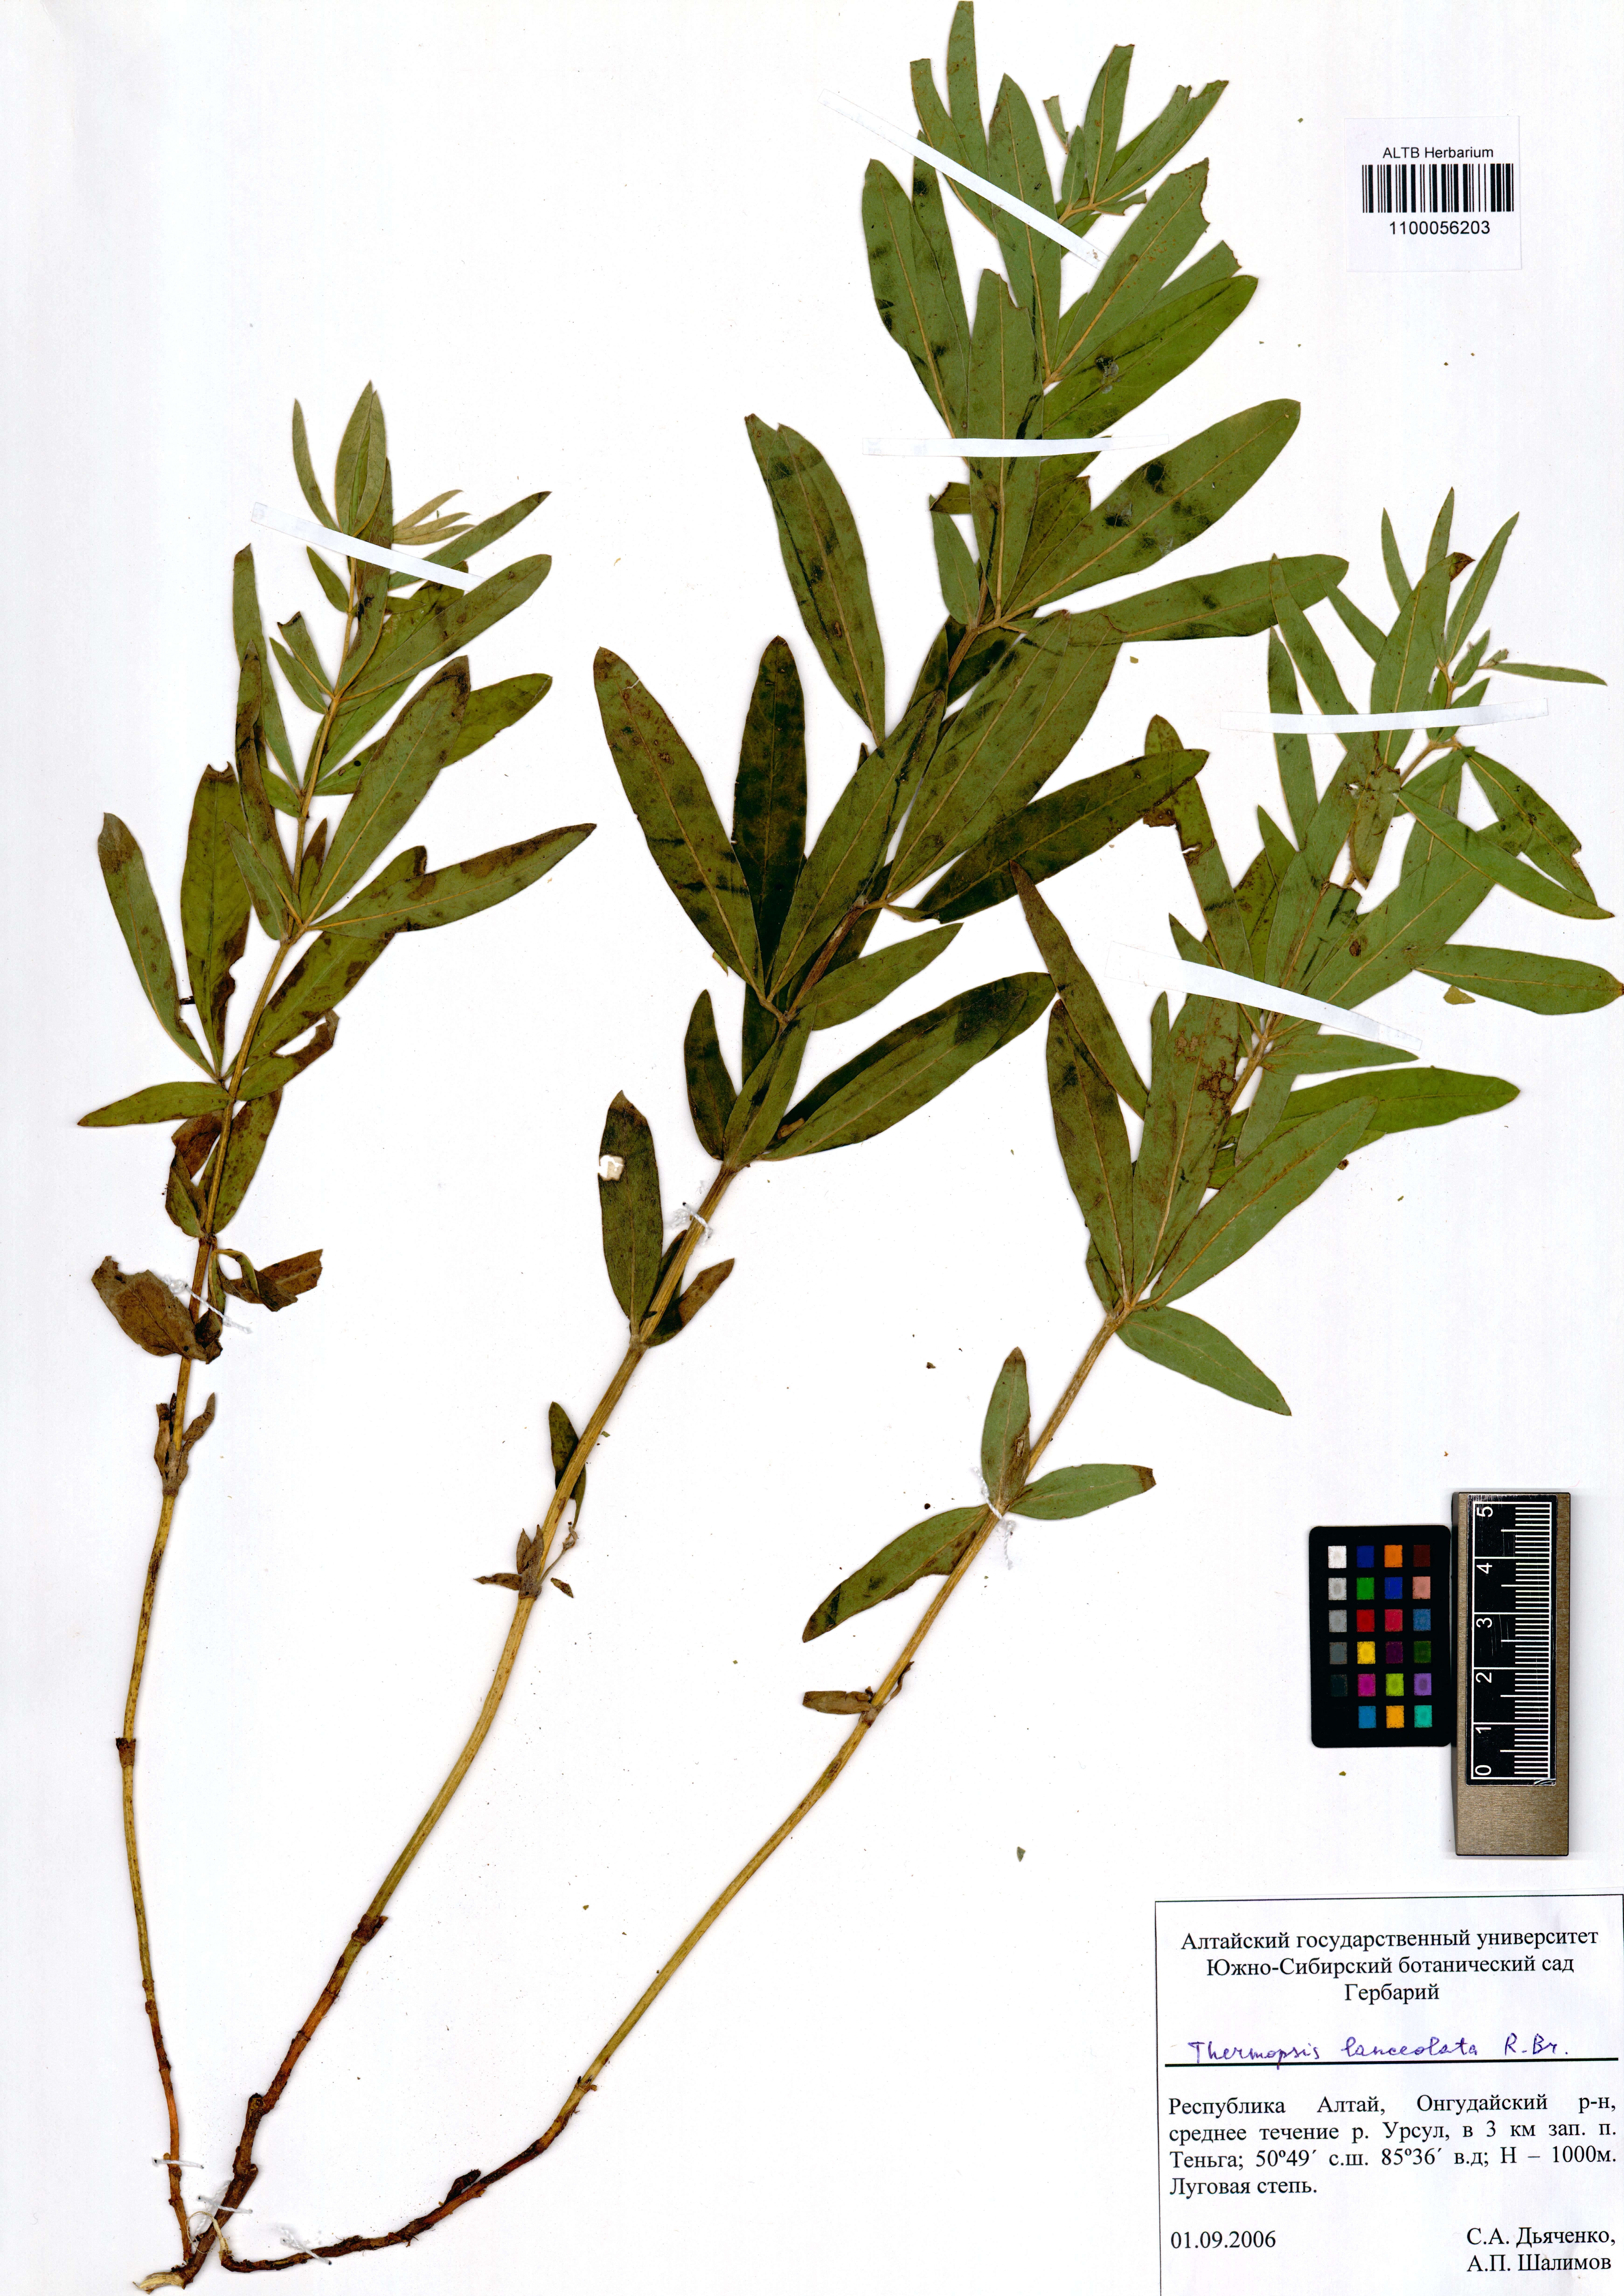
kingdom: Plantae
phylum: Tracheophyta
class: Magnoliopsida
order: Fabales
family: Fabaceae
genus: Thermopsis
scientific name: Thermopsis lanceolata
